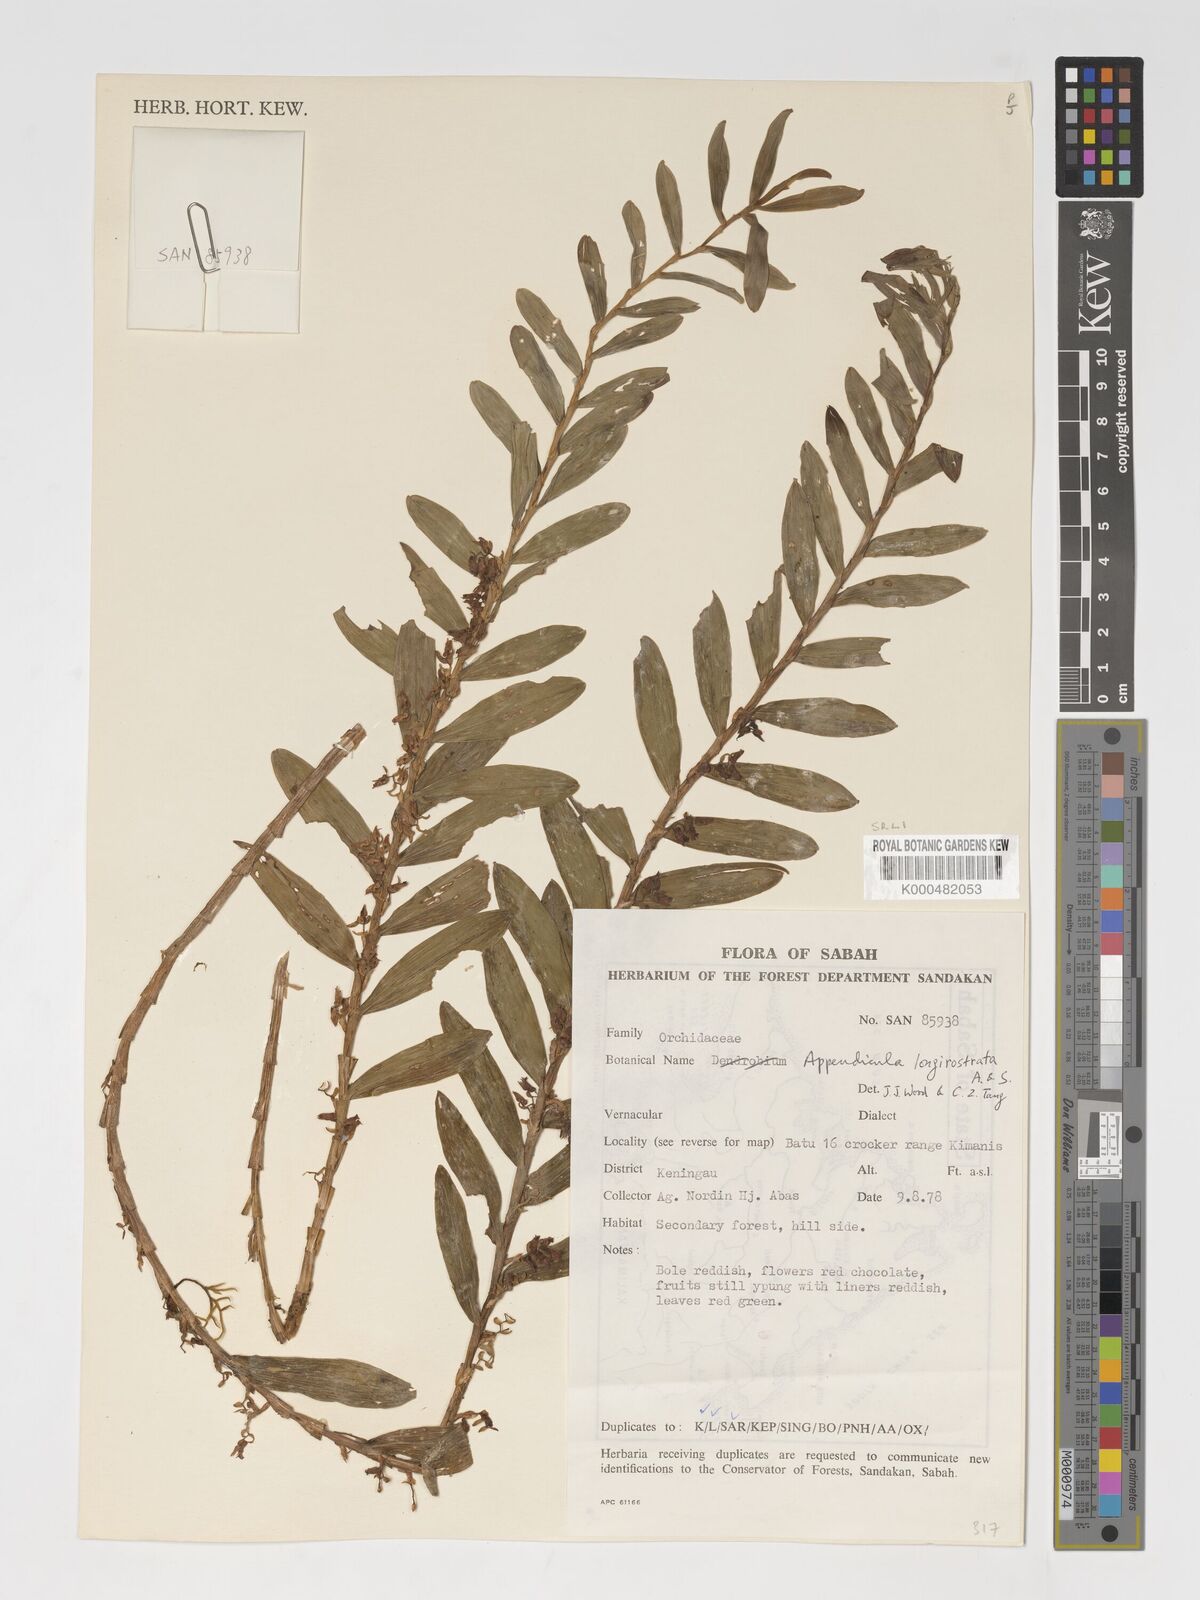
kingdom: Plantae
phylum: Tracheophyta
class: Liliopsida
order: Asparagales
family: Orchidaceae
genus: Appendicula
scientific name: Appendicula longirostrata
